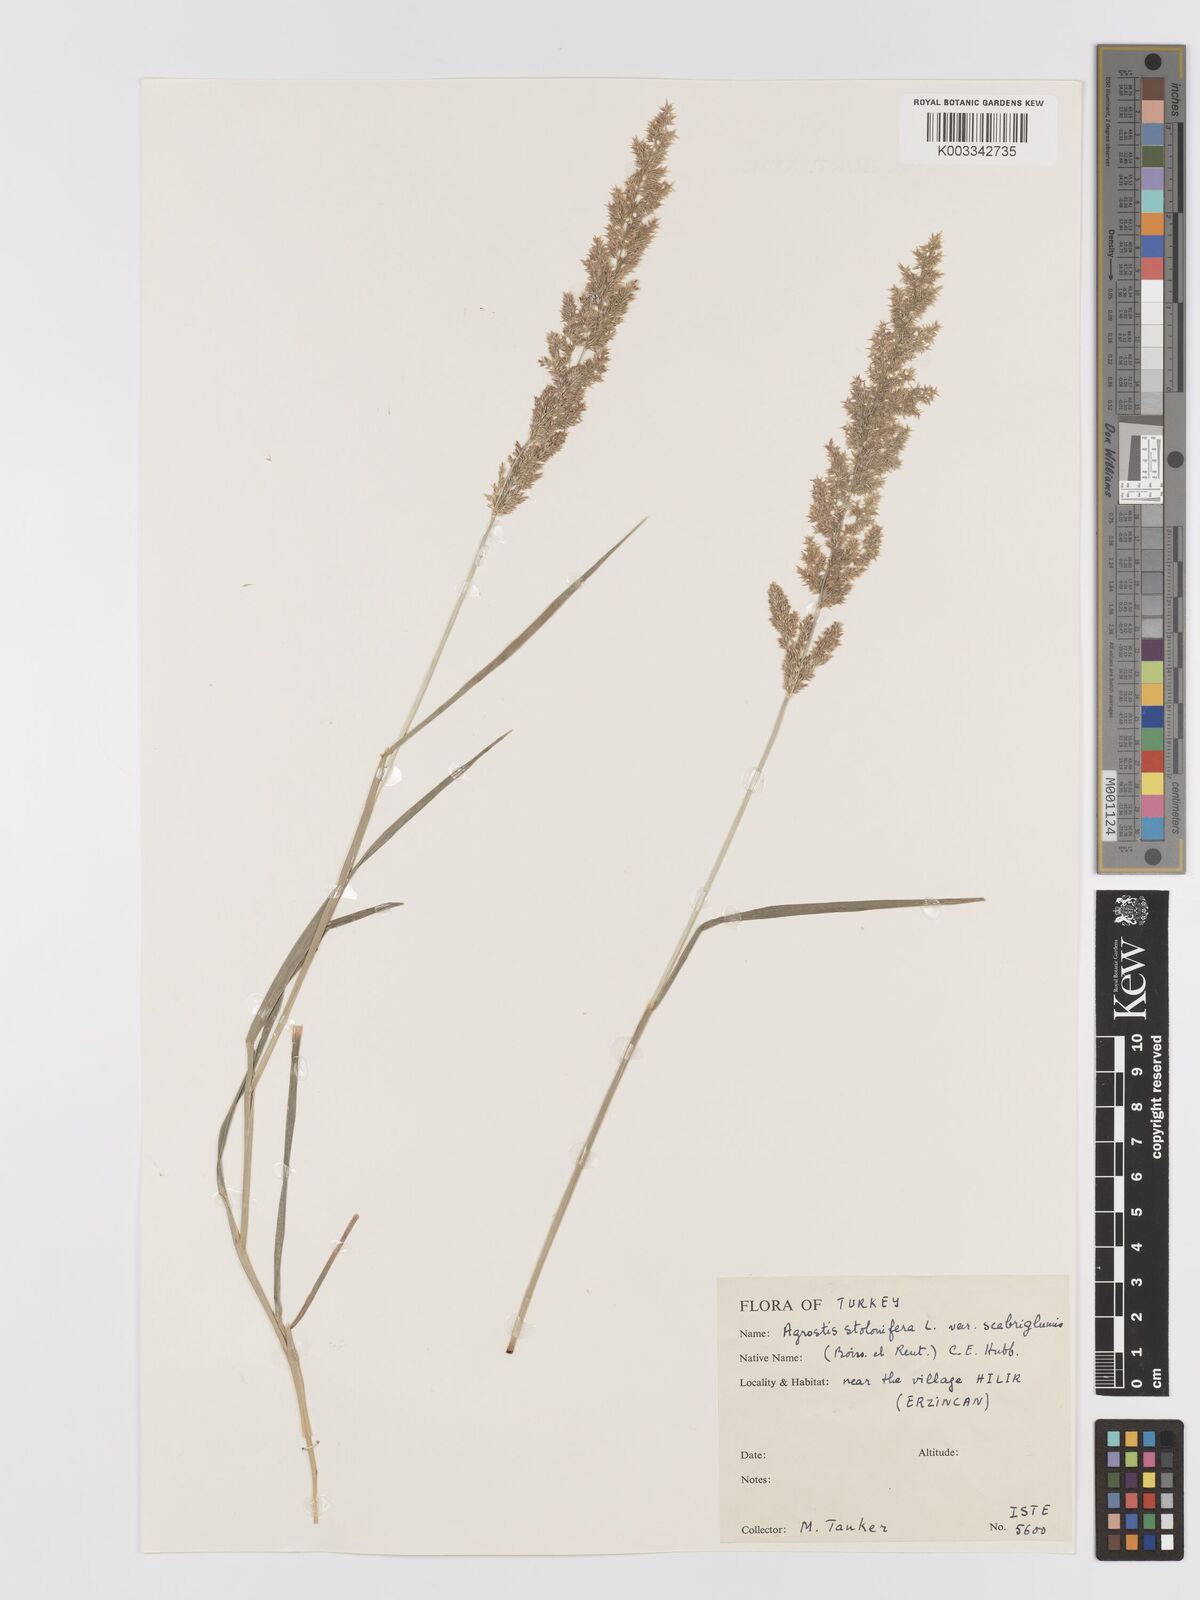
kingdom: Plantae
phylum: Tracheophyta
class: Liliopsida
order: Poales
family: Poaceae
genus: Agrostis
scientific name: Agrostis stolonifera
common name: Creeping bentgrass
